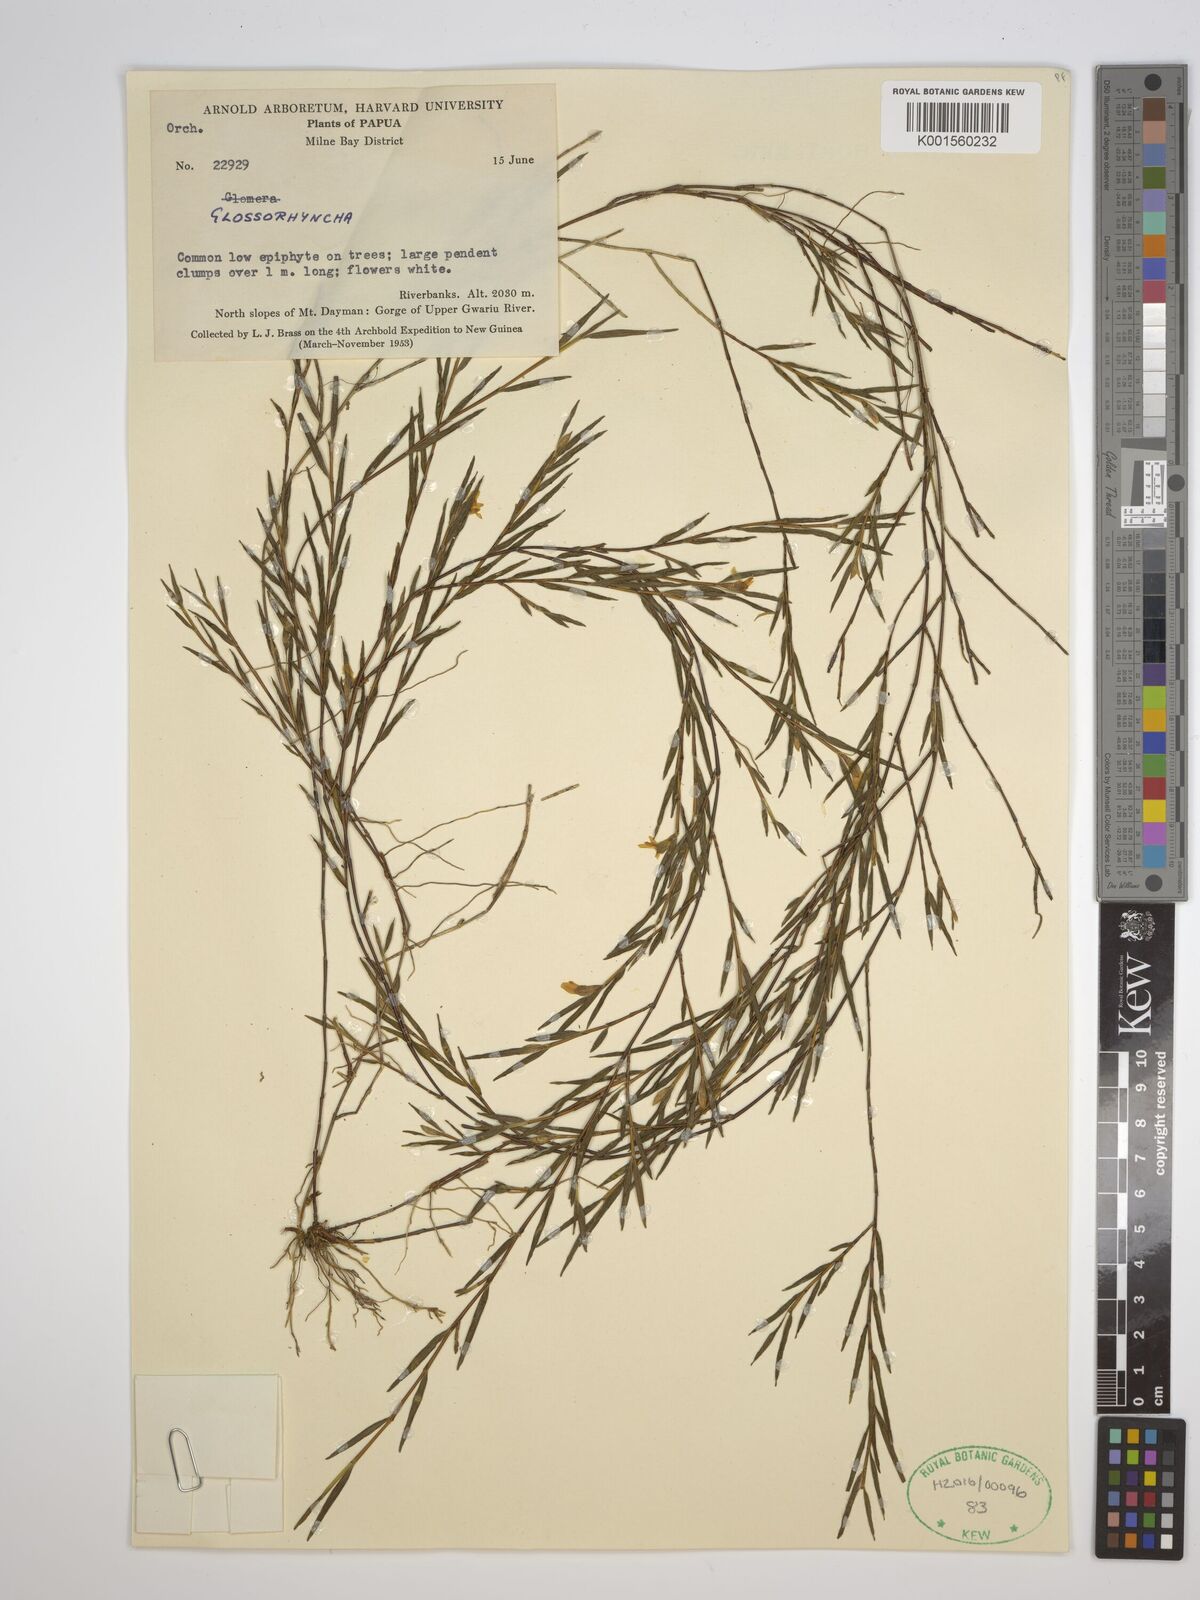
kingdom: Plantae
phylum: Tracheophyta
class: Liliopsida
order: Asparagales
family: Orchidaceae
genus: Glomera
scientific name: Glomera
